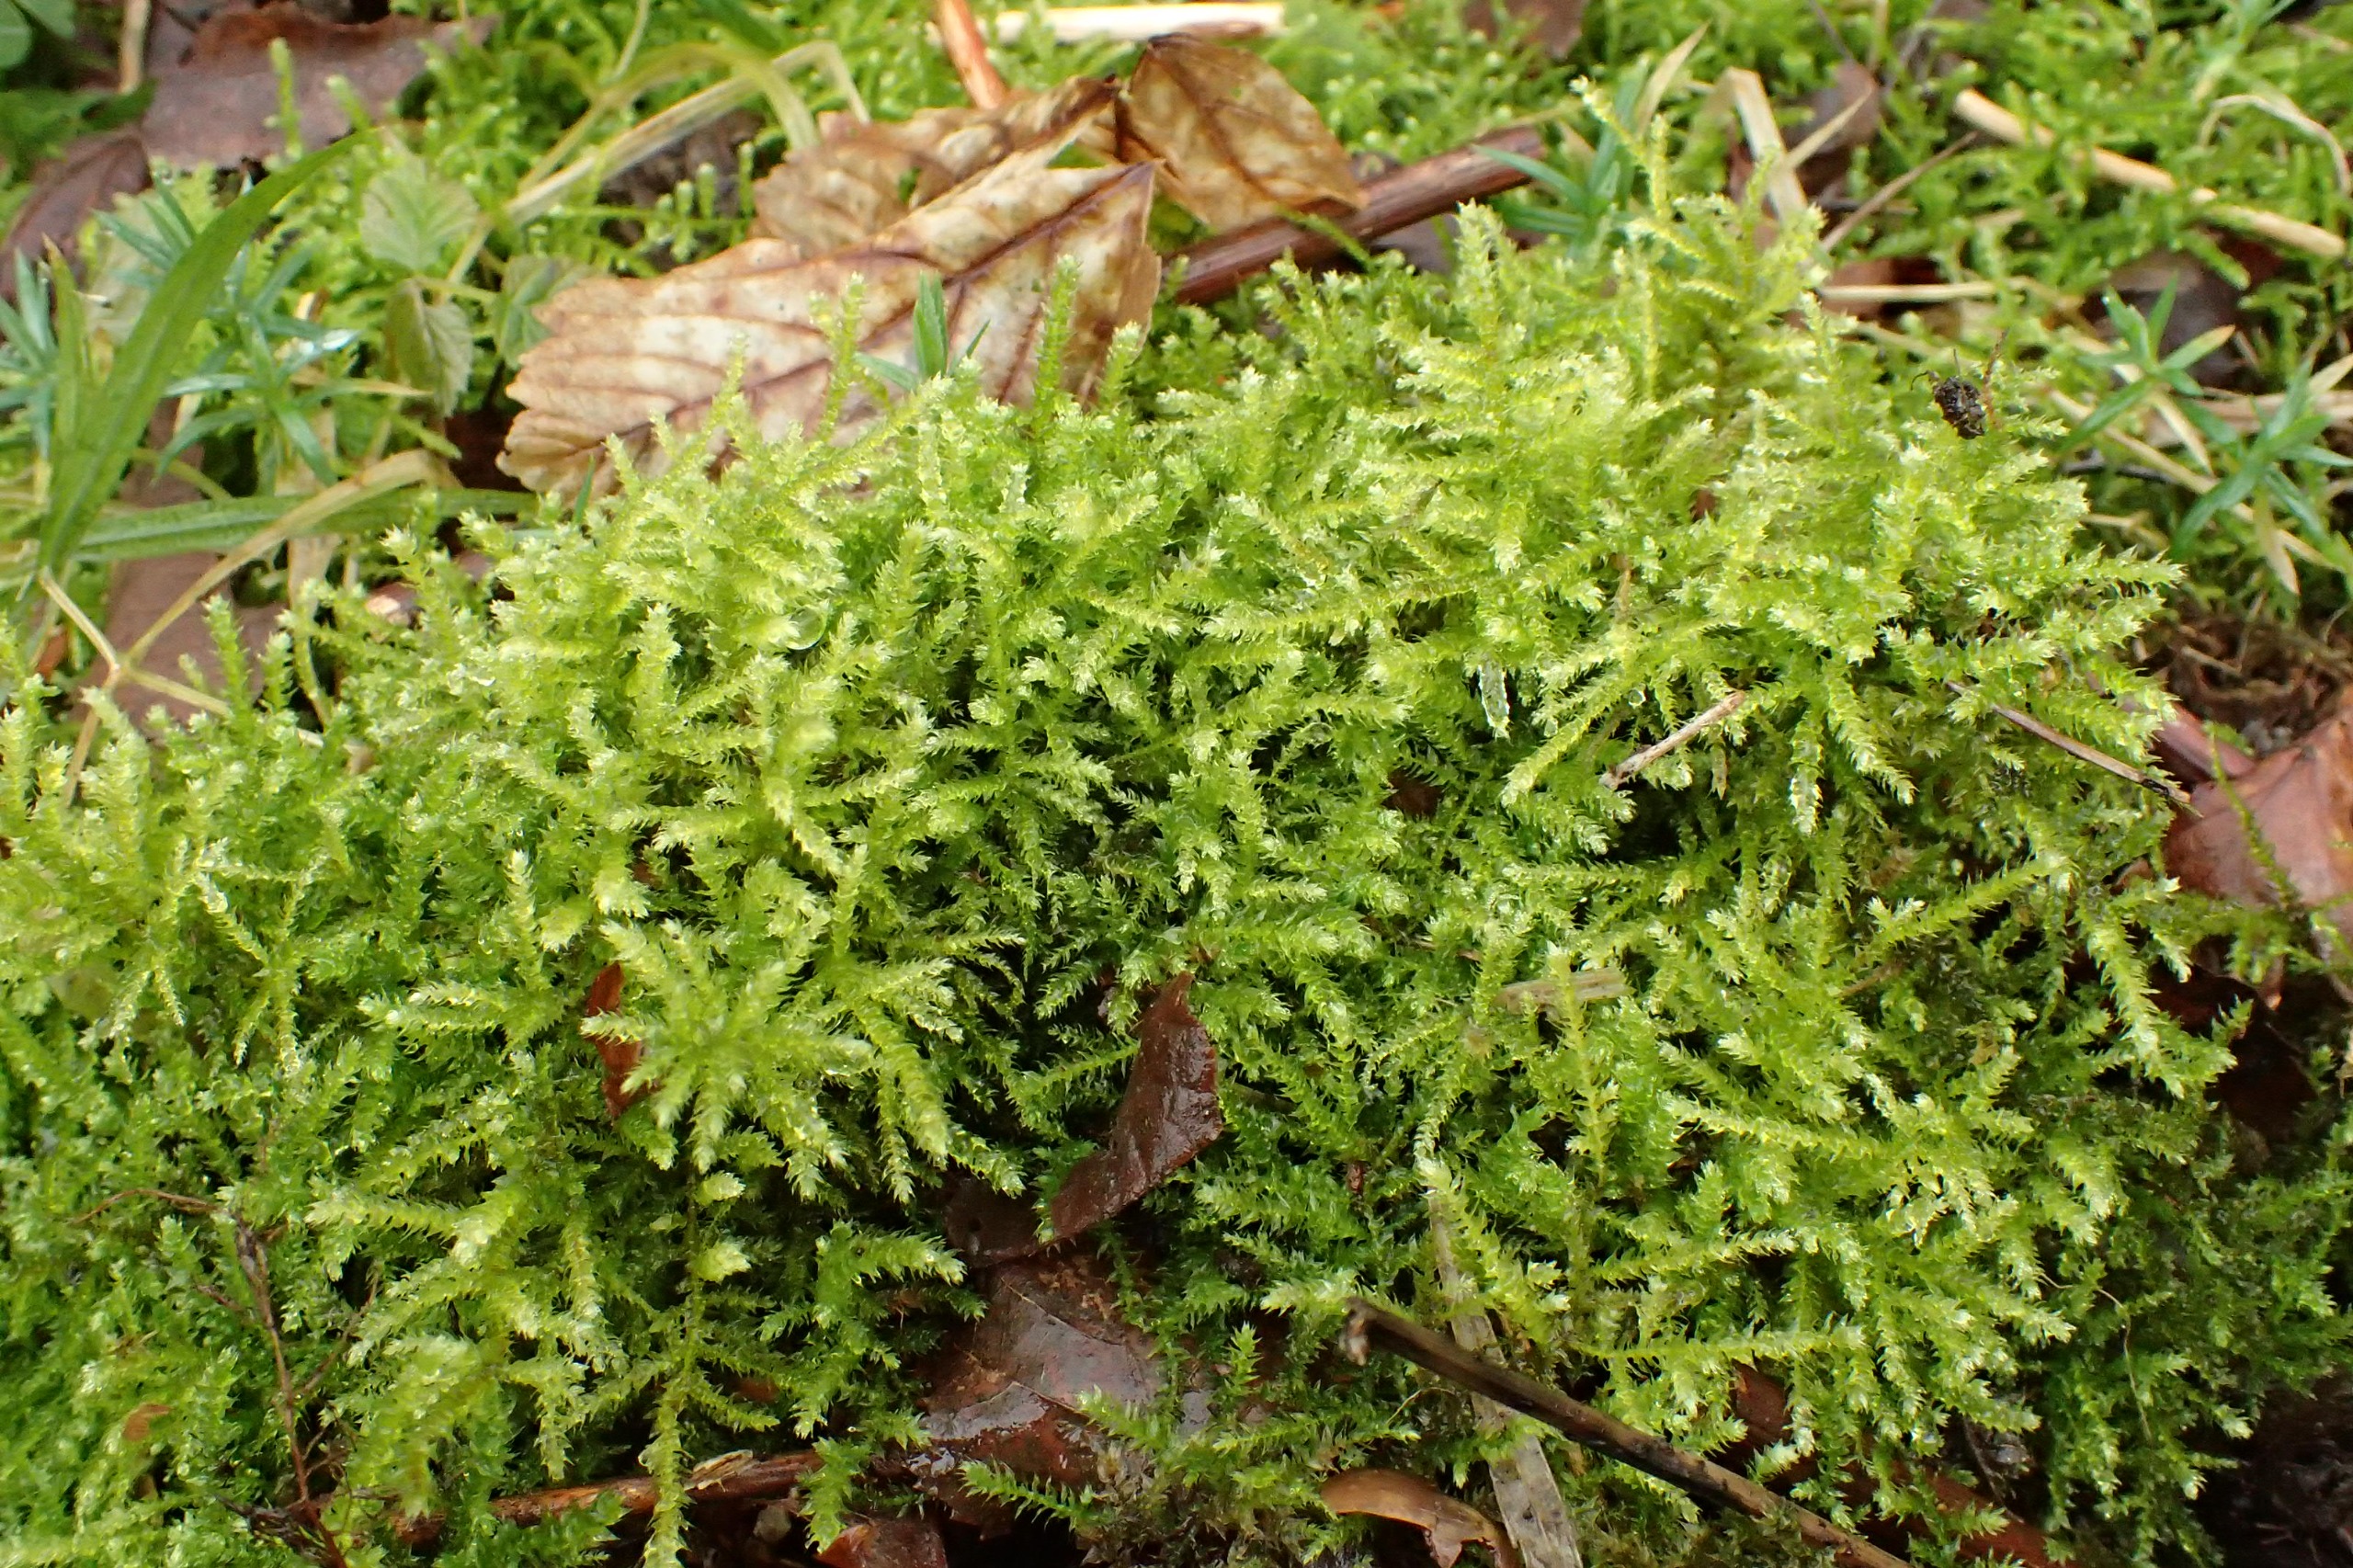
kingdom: Plantae
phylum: Bryophyta
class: Bryopsida
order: Hypnales
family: Brachytheciaceae
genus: Eurhynchium
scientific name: Eurhynchium striatum
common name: Stribet næbmos
